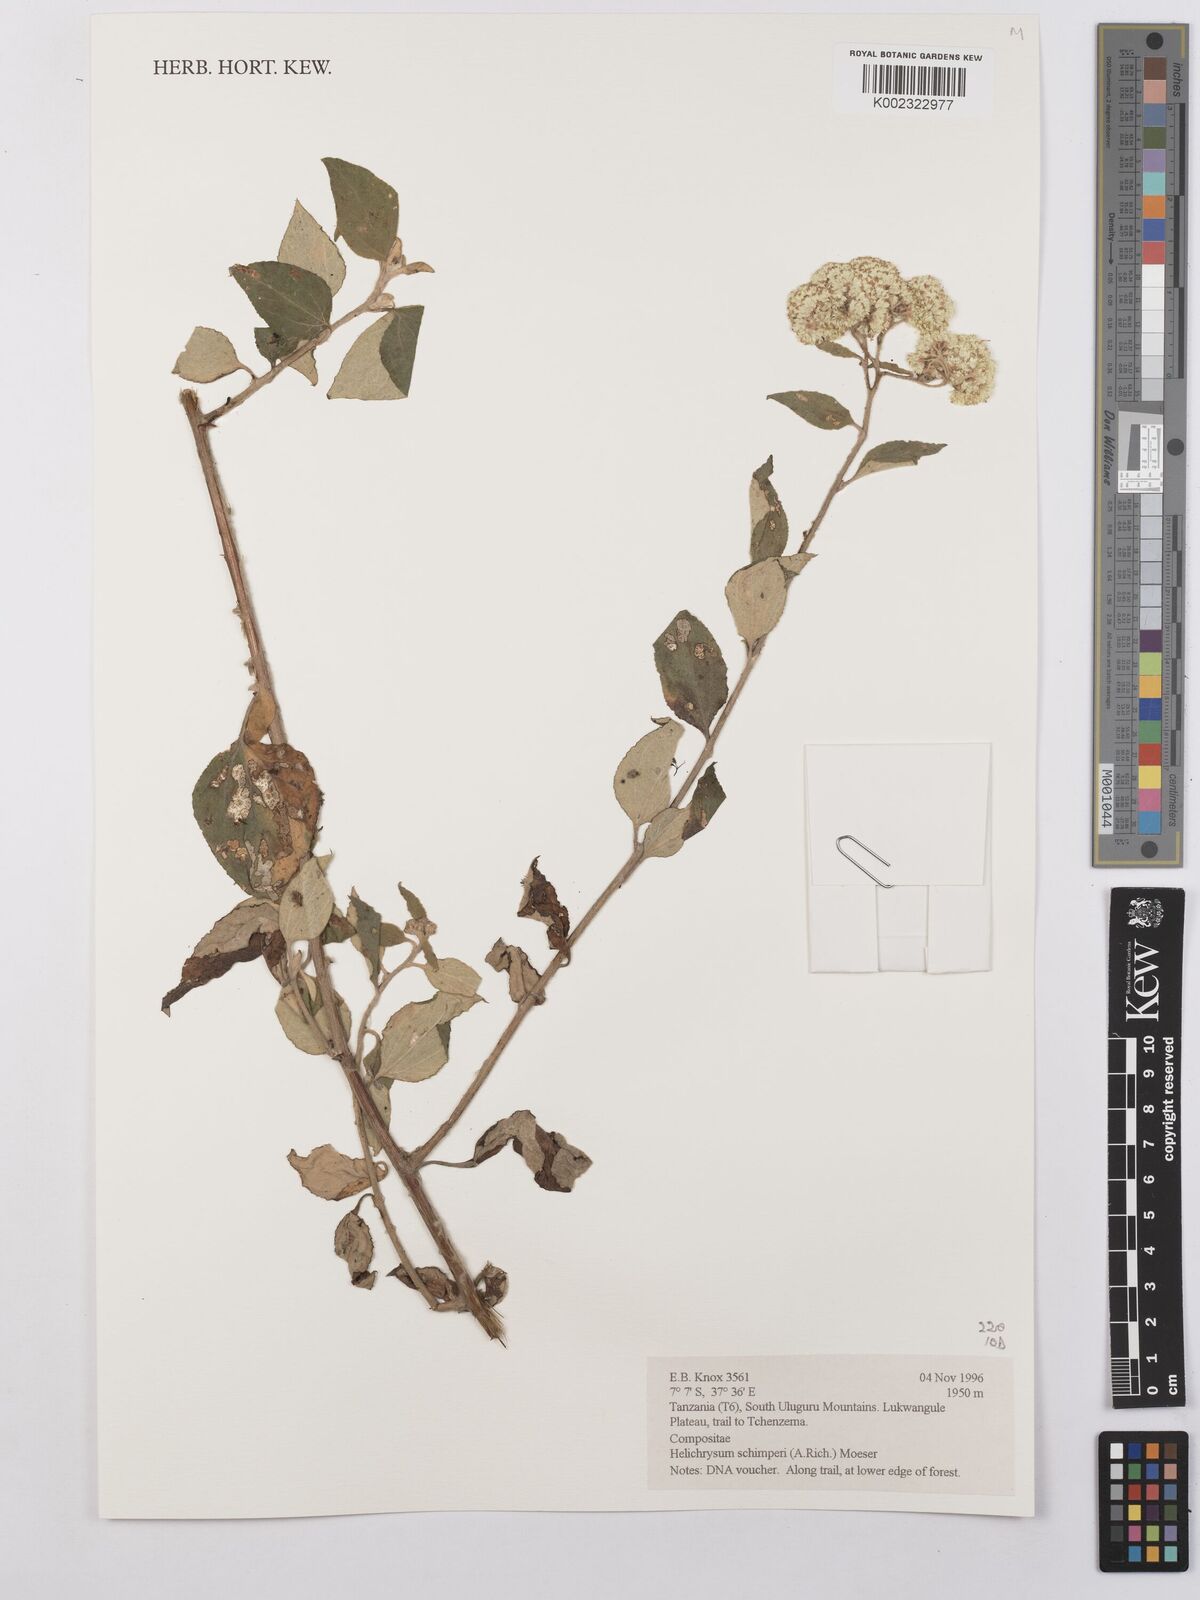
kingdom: Plantae
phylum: Tracheophyta
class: Magnoliopsida
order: Asterales
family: Asteraceae
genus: Helichrysum
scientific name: Helichrysum schimperi
